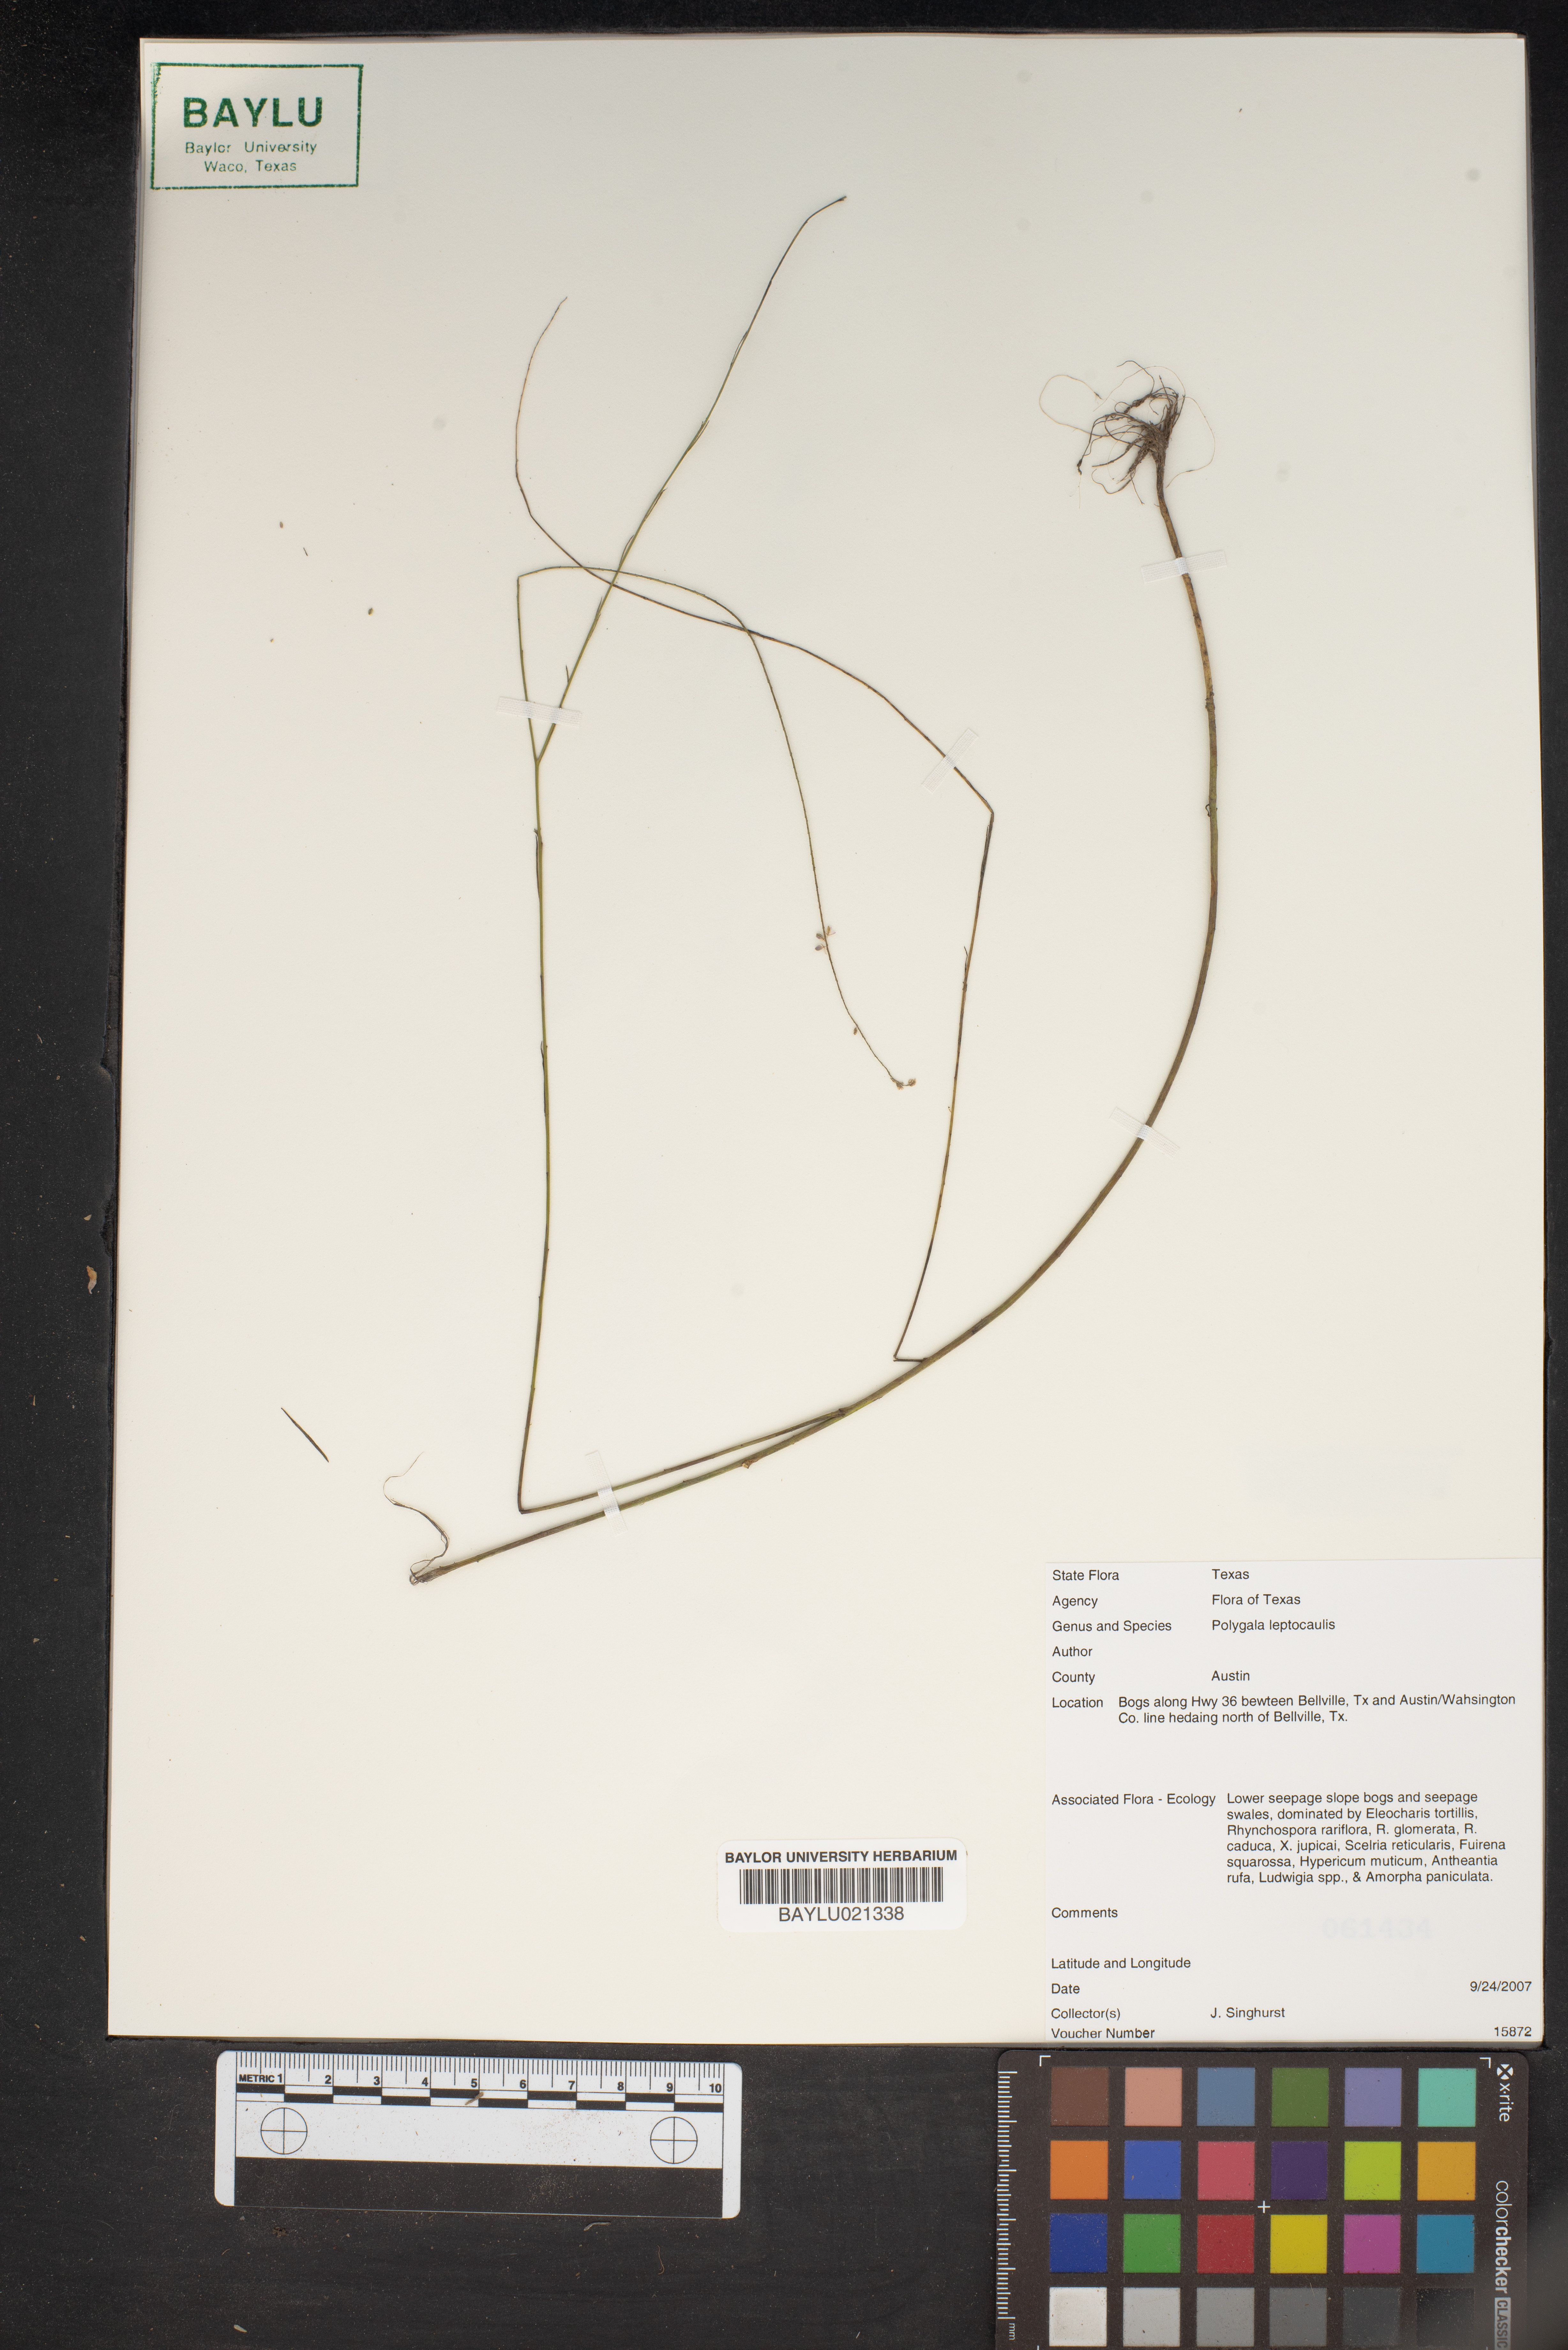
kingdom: Plantae
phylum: Tracheophyta
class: Magnoliopsida
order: Fabales
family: Polygalaceae
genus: Polygala
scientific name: Polygala tenella
